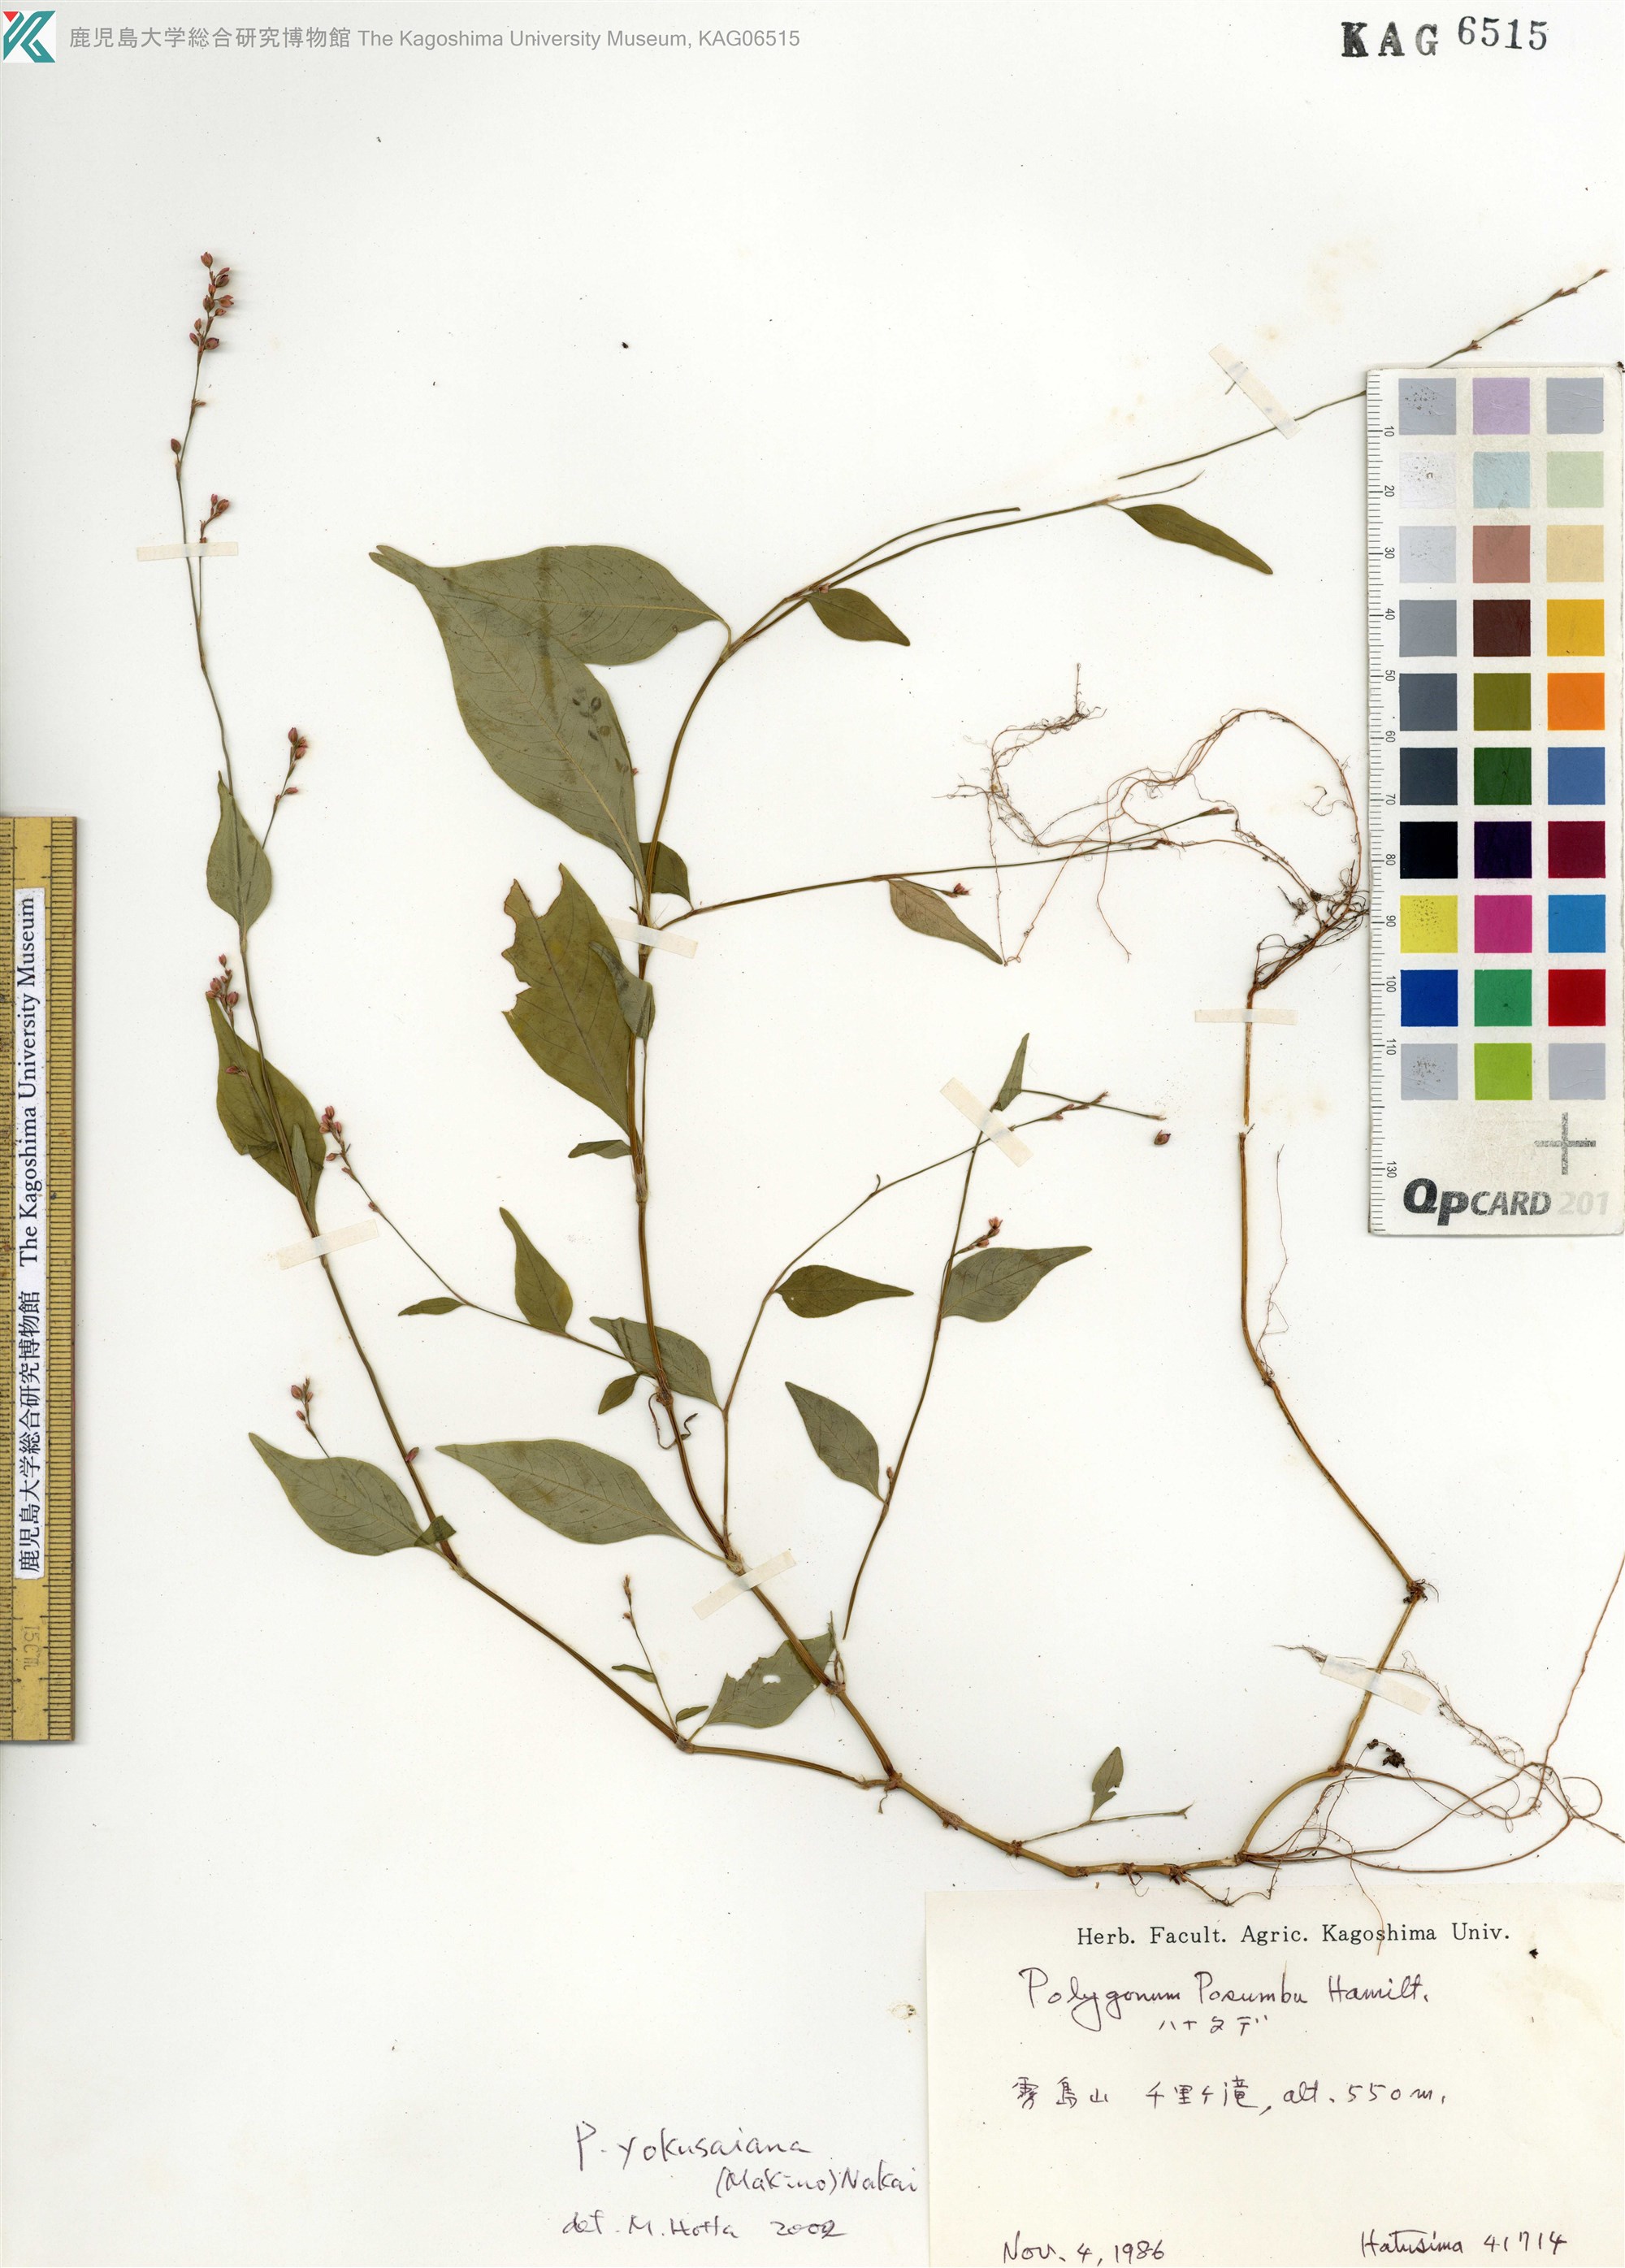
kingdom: Plantae
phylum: Tracheophyta
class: Magnoliopsida
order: Caryophyllales
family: Polygonaceae
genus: Persicaria
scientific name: Persicaria posumbu
